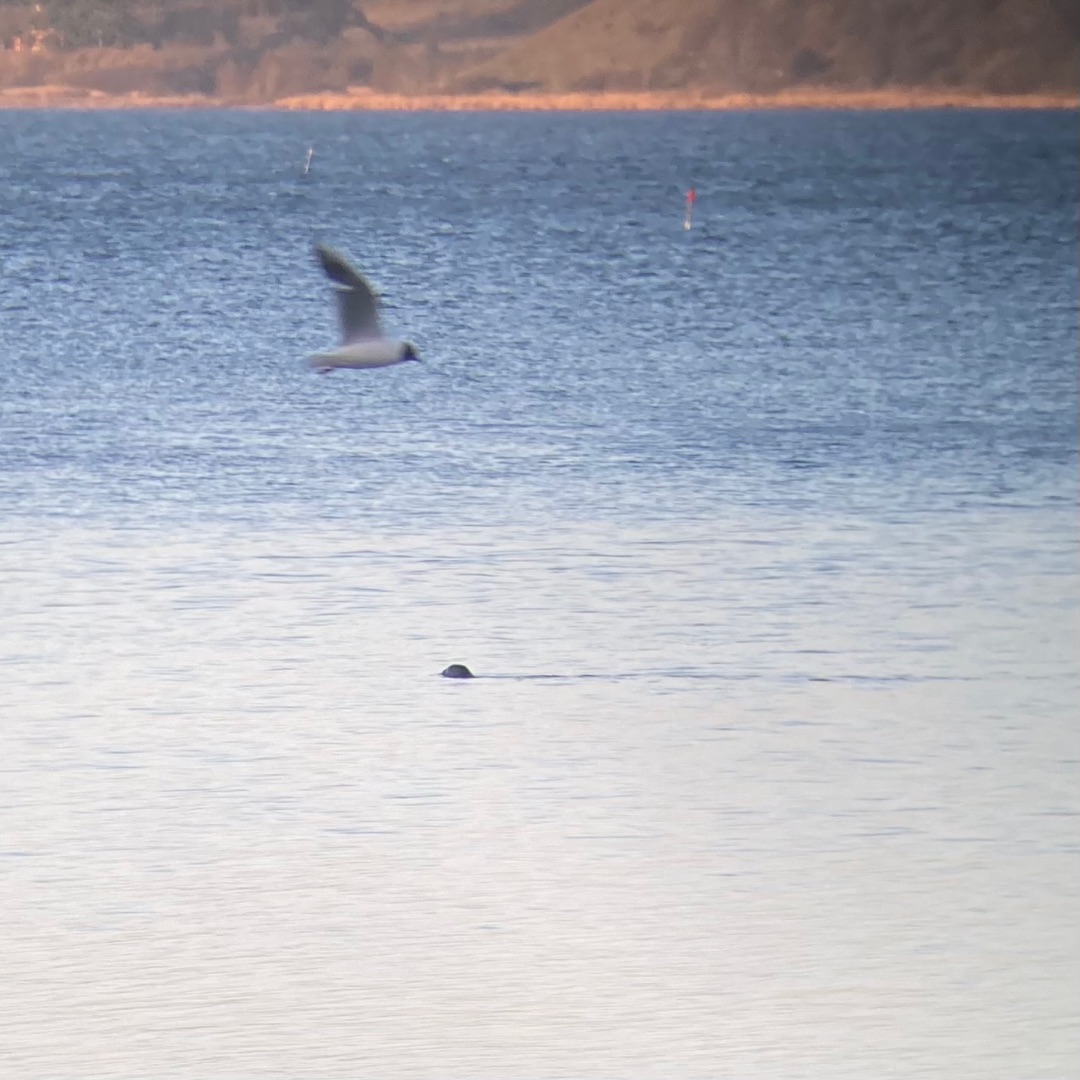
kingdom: Animalia
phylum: Chordata
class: Mammalia
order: Carnivora
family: Phocidae
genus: Phoca
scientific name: Phoca vitulina
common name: Spættet sæl
